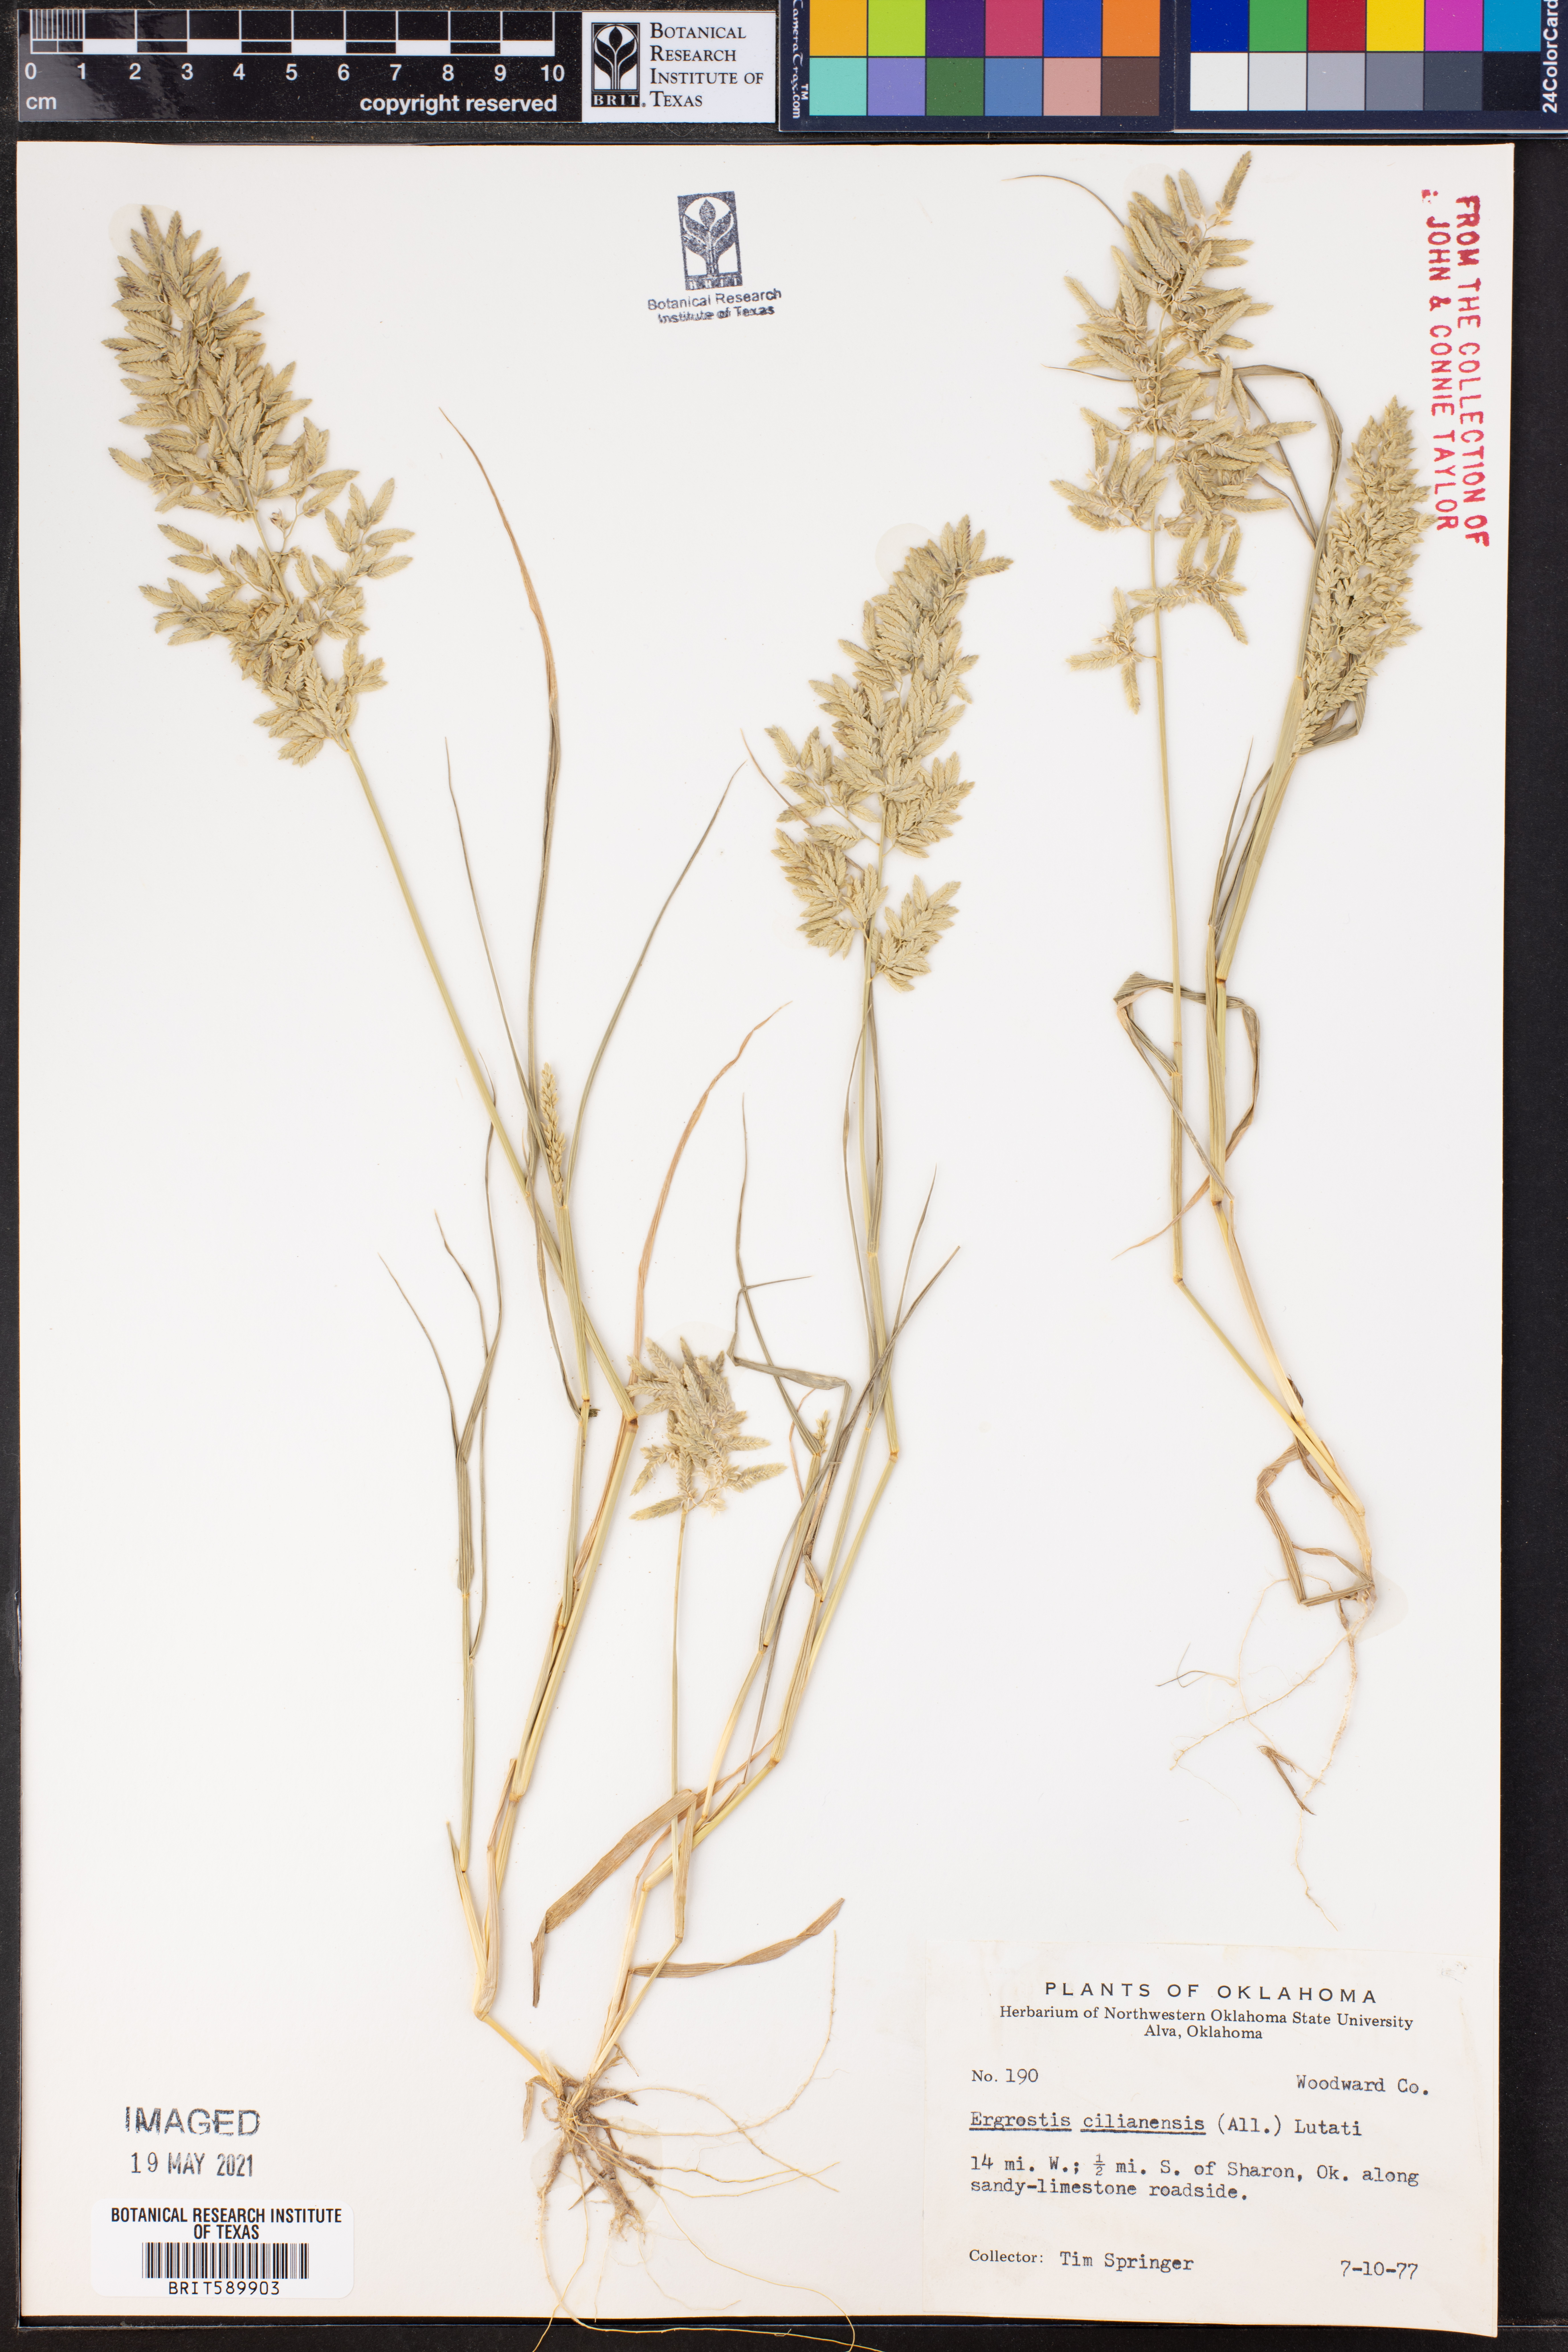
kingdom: Plantae
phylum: Tracheophyta
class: Liliopsida
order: Poales
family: Poaceae
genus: Eragrostis
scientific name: Eragrostis cilianensis
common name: Stinkgrass
